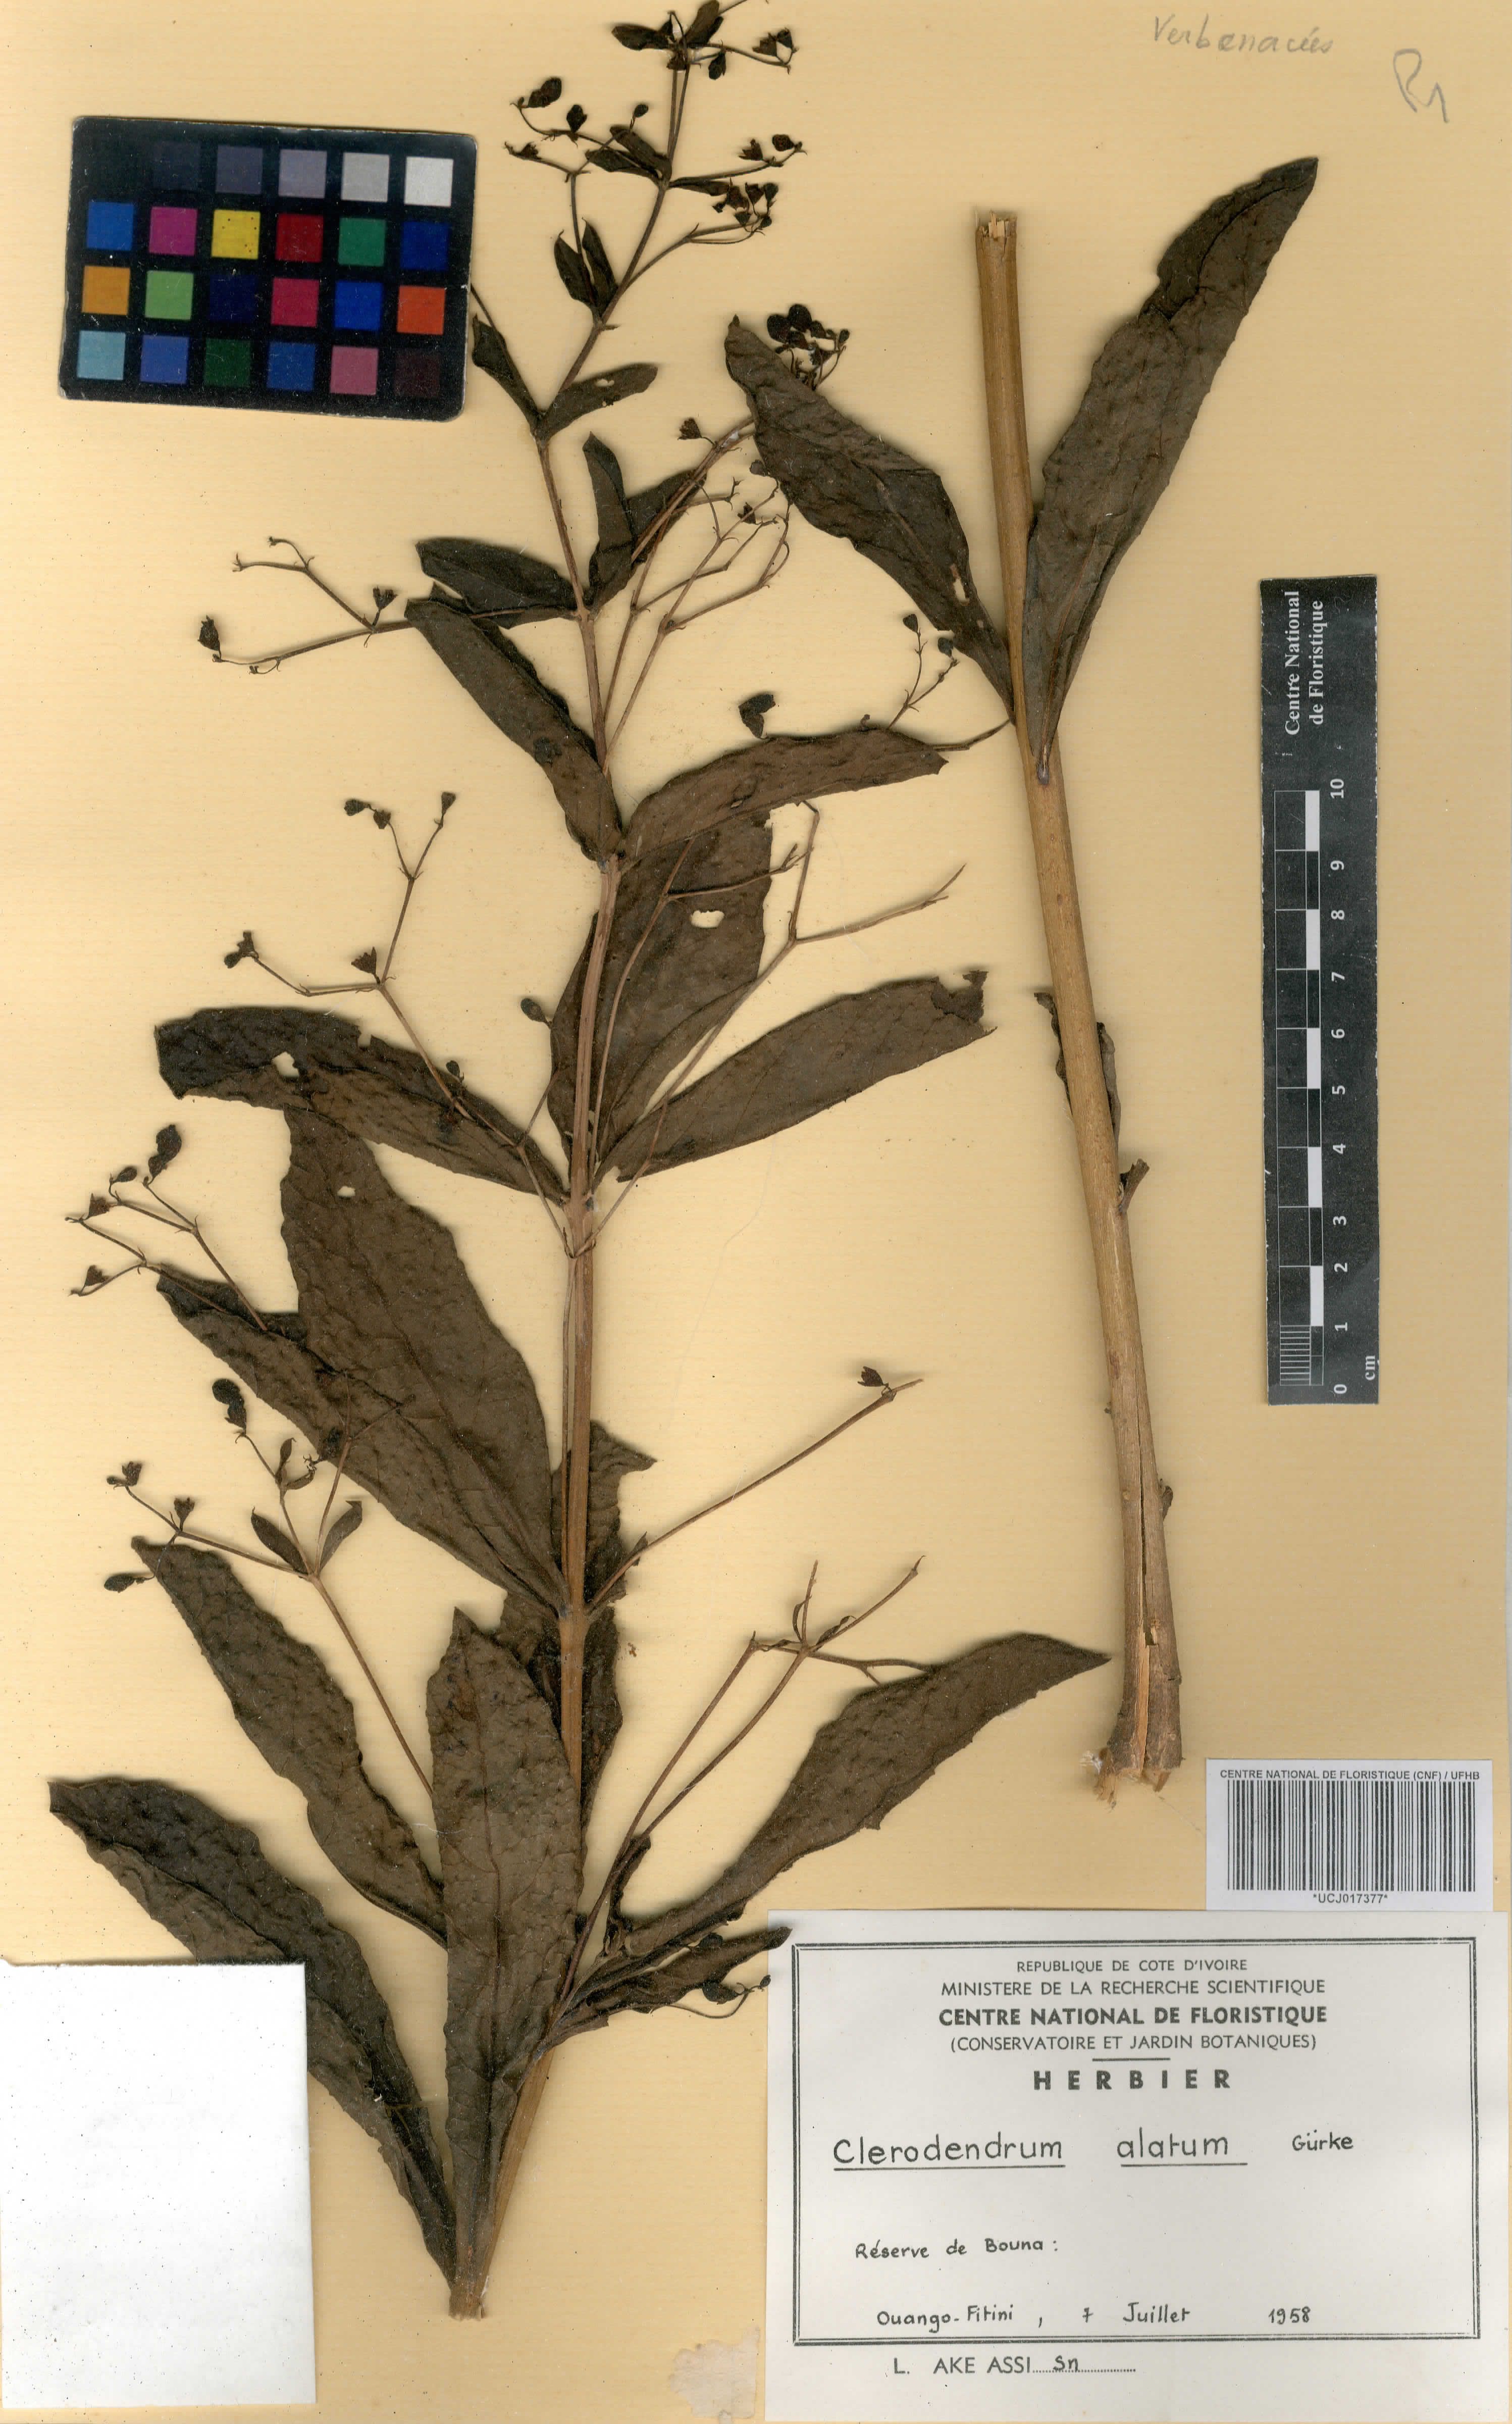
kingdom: Plantae
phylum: Tracheophyta
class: Magnoliopsida
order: Lamiales
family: Lamiaceae
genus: Rotheca
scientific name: Rotheca alata
